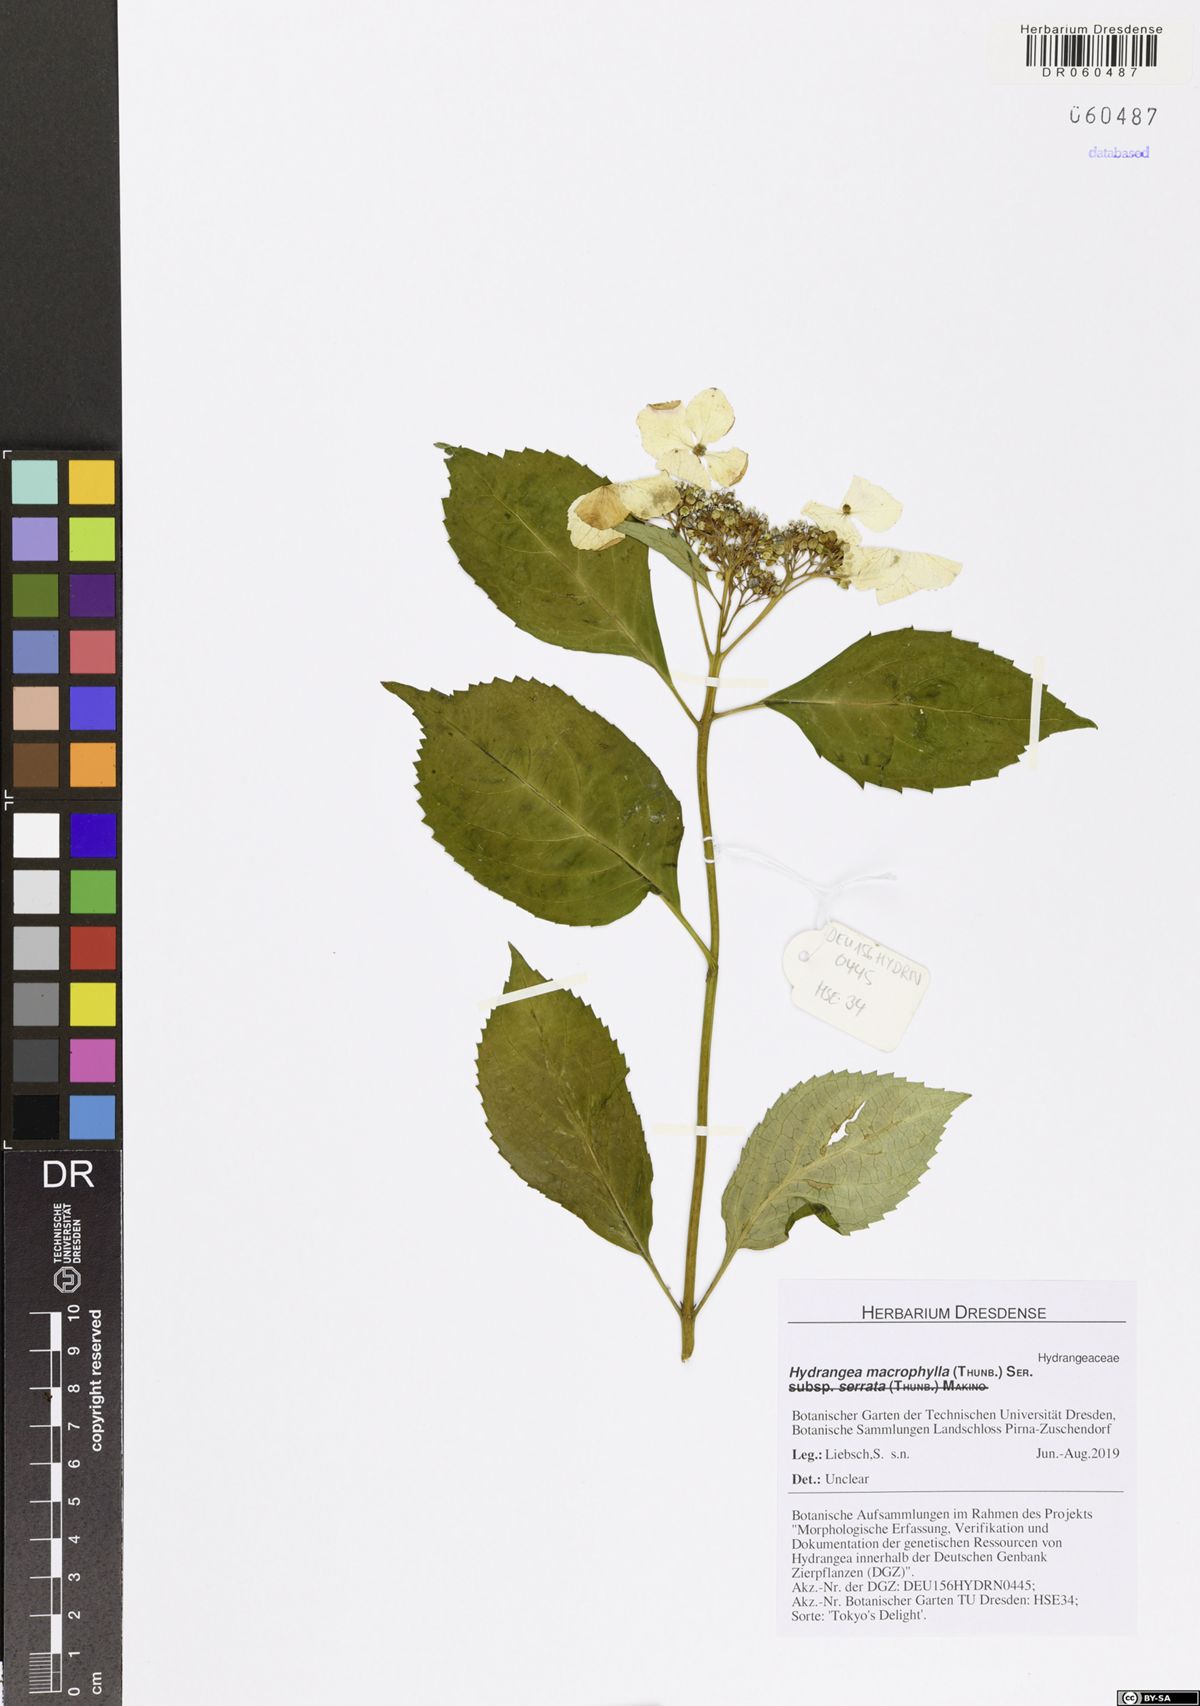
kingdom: Plantae
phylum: Tracheophyta
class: Magnoliopsida
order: Cornales
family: Hydrangeaceae
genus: Hydrangea
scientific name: Hydrangea macrophylla
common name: Hydrangea
